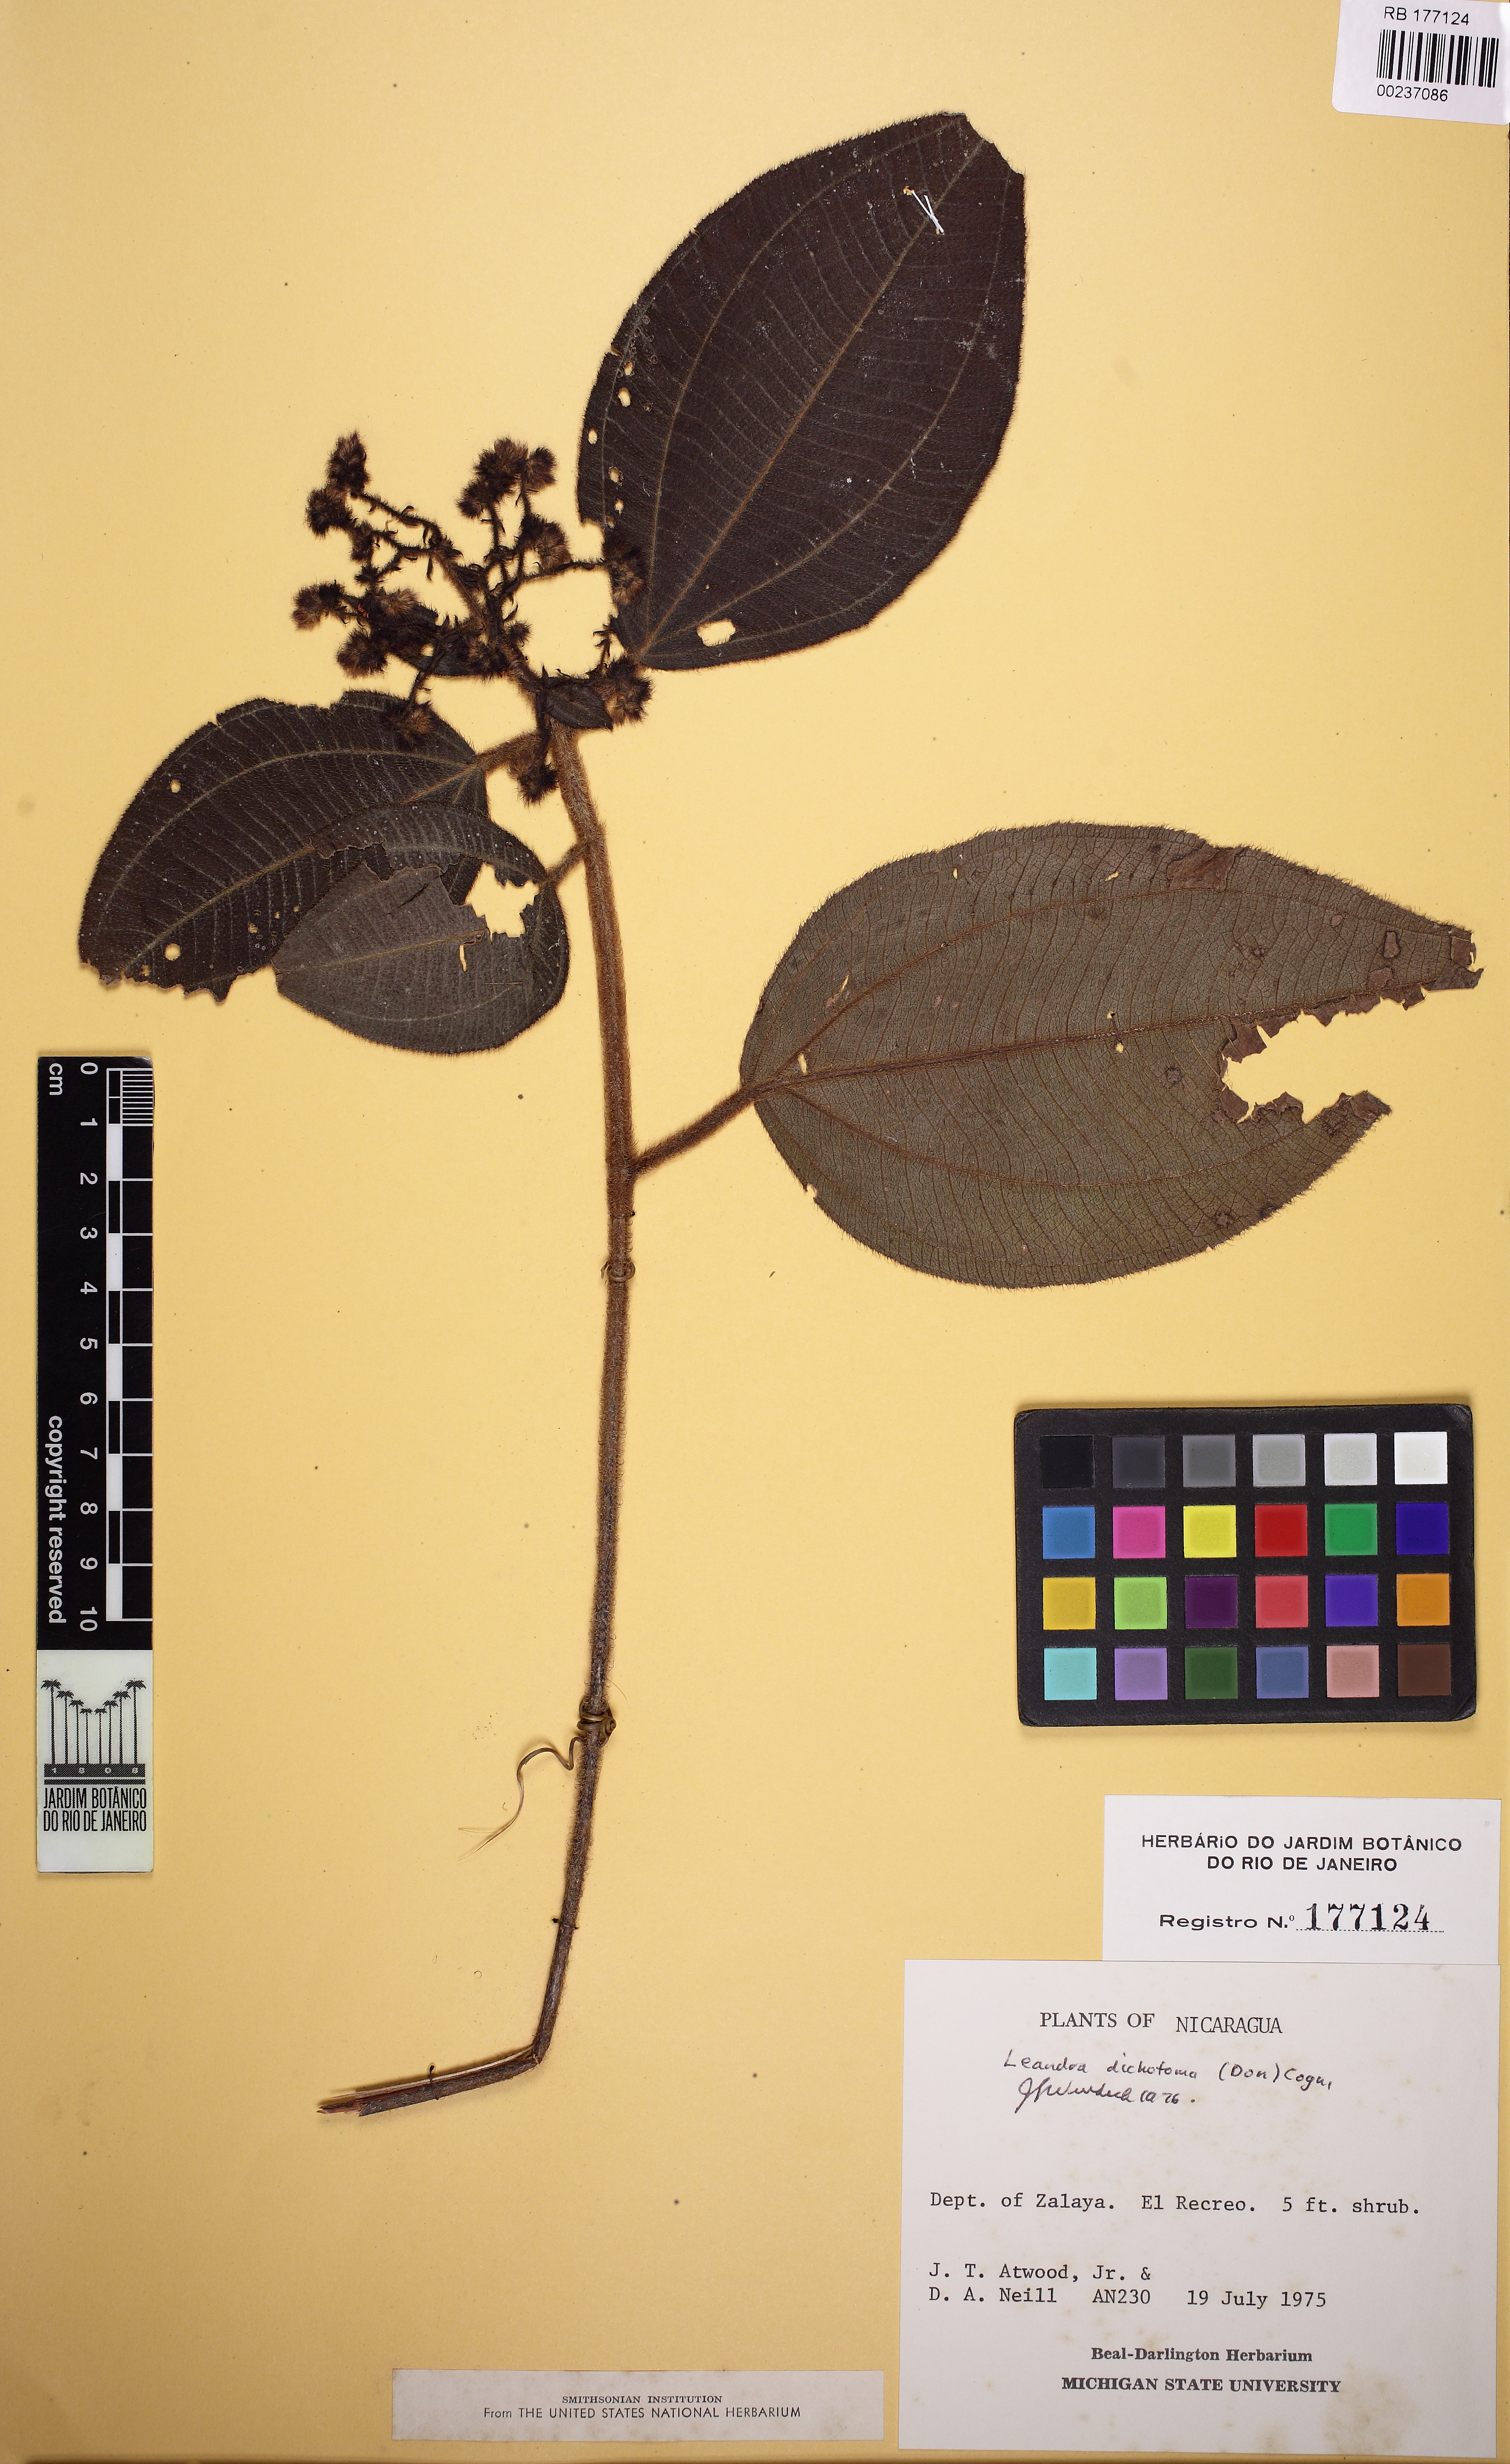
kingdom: Plantae
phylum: Tracheophyta
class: Magnoliopsida
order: Myrtales
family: Melastomataceae
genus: Miconia
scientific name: Miconia sulcicaulis
